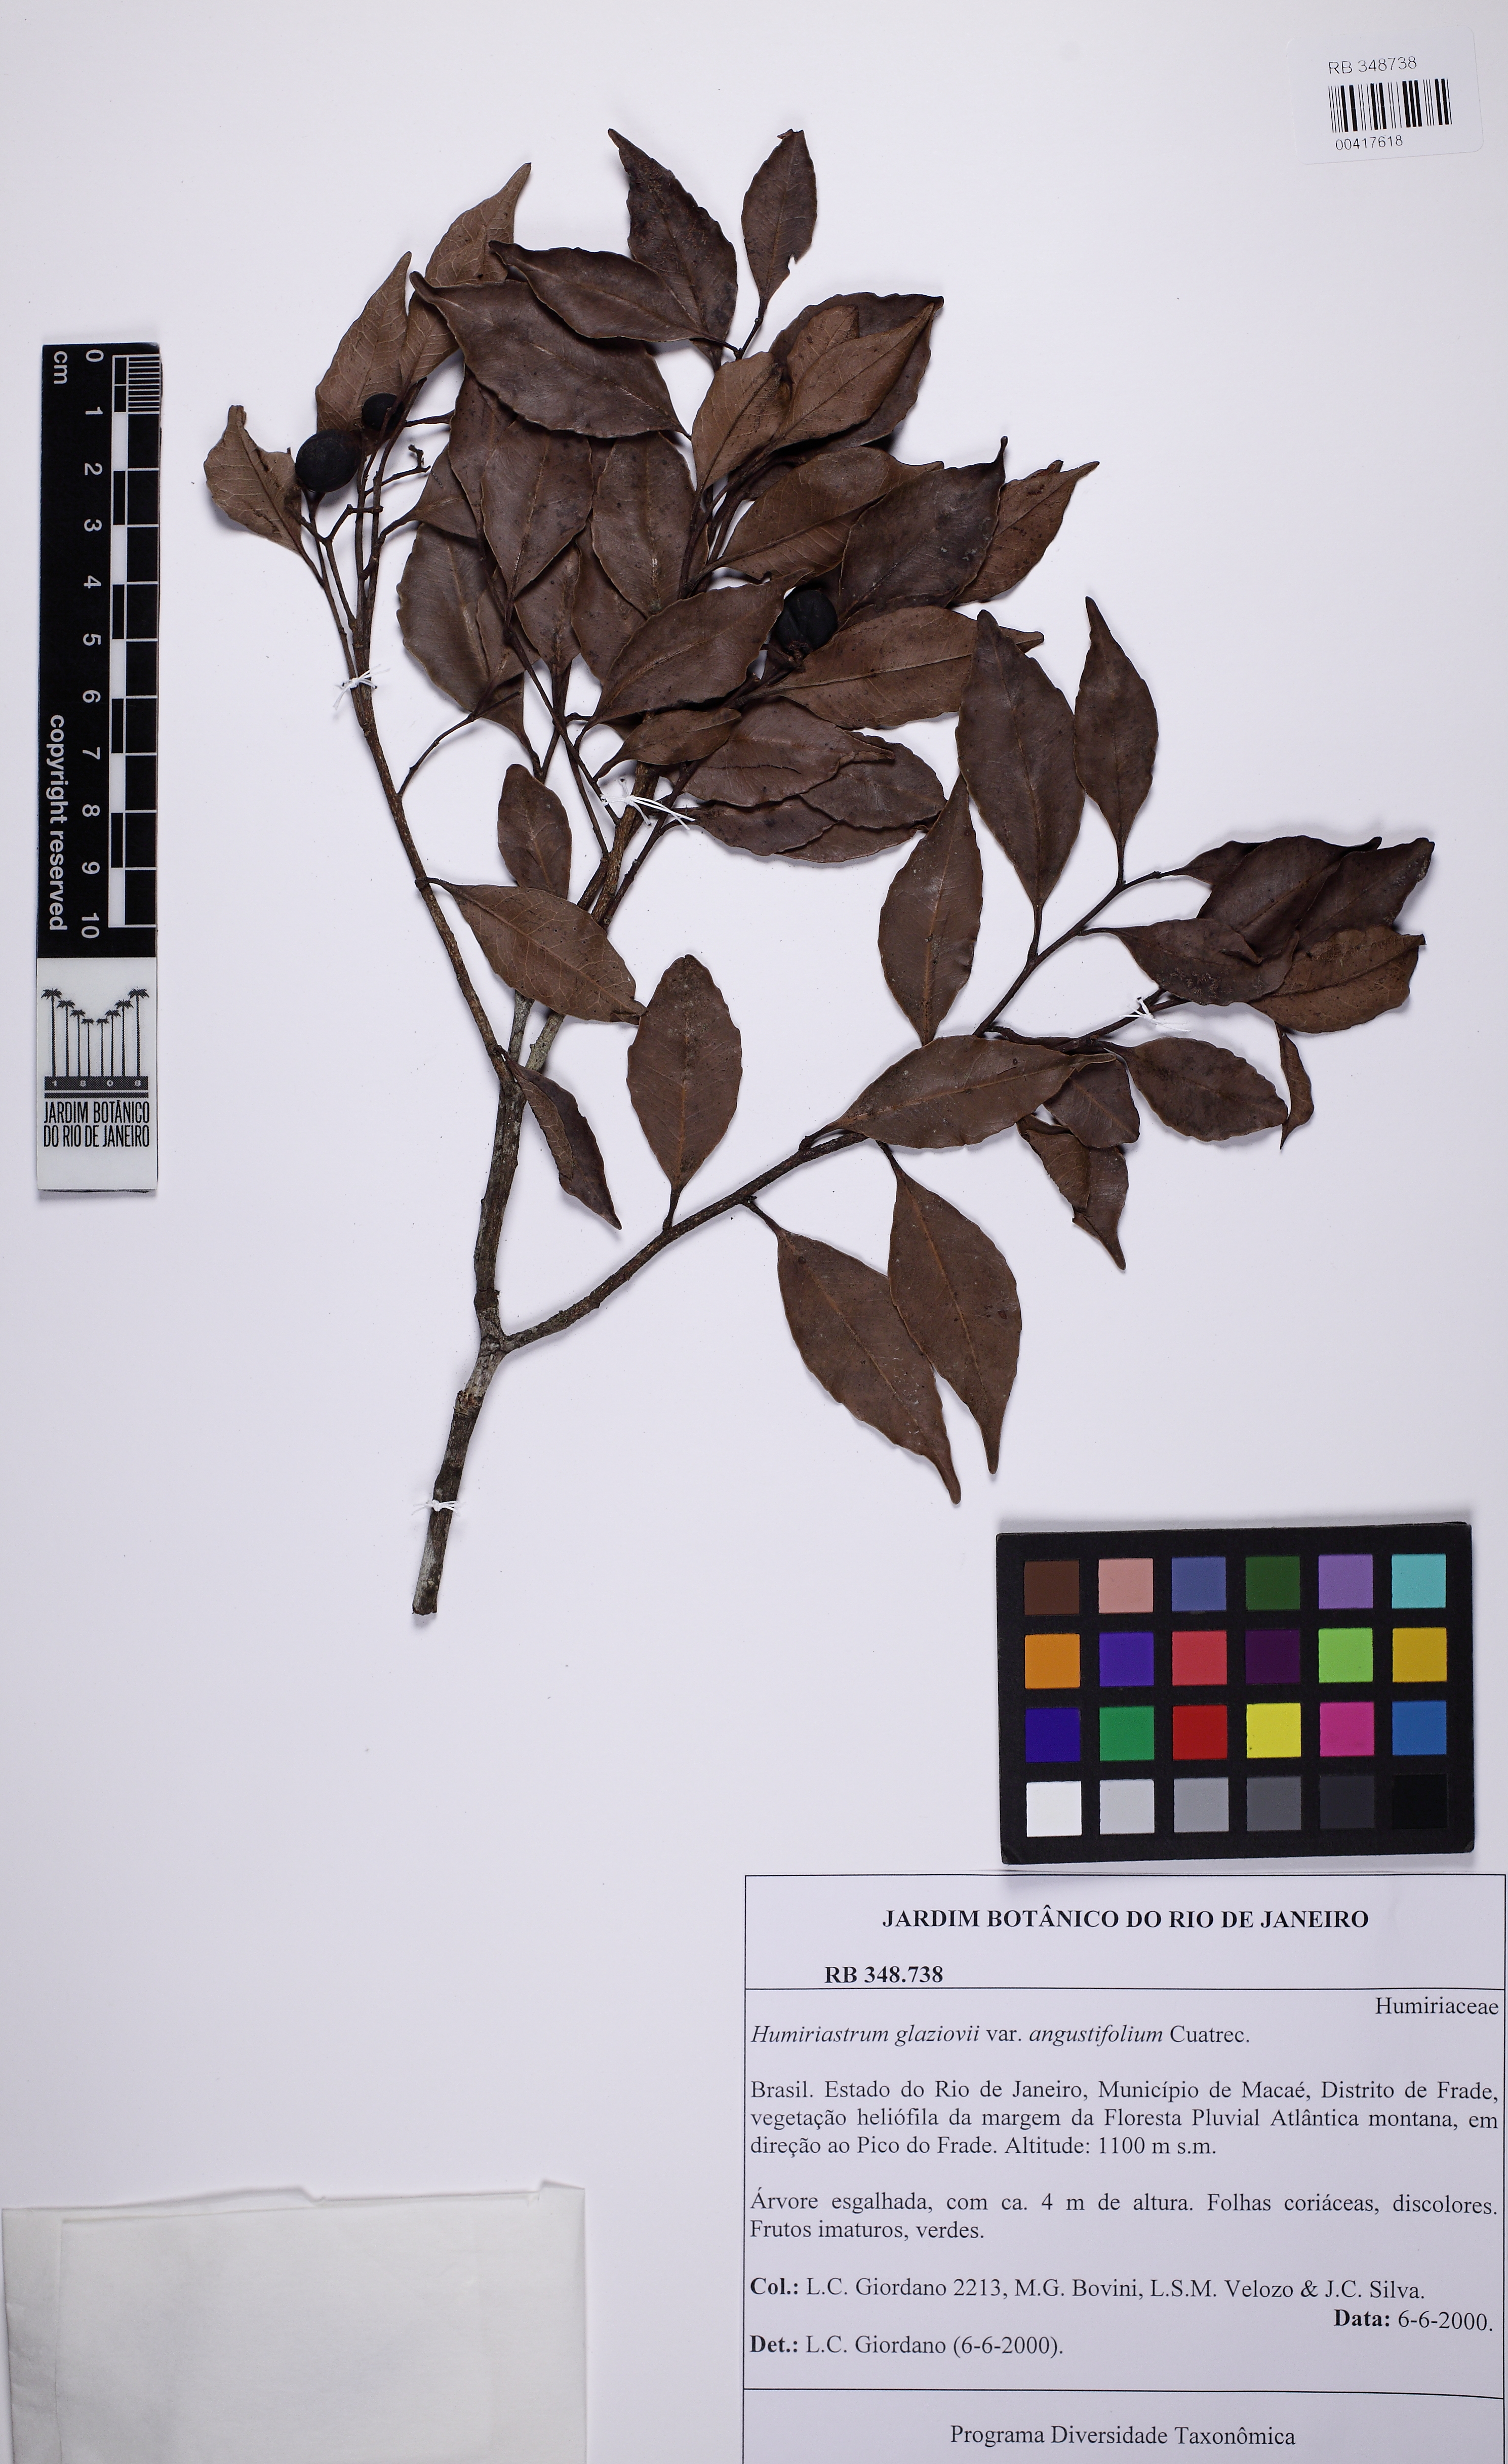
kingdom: Plantae
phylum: Tracheophyta
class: Magnoliopsida
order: Malpighiales
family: Humiriaceae
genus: Humiriastrum
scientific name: Humiriastrum glaziovii
